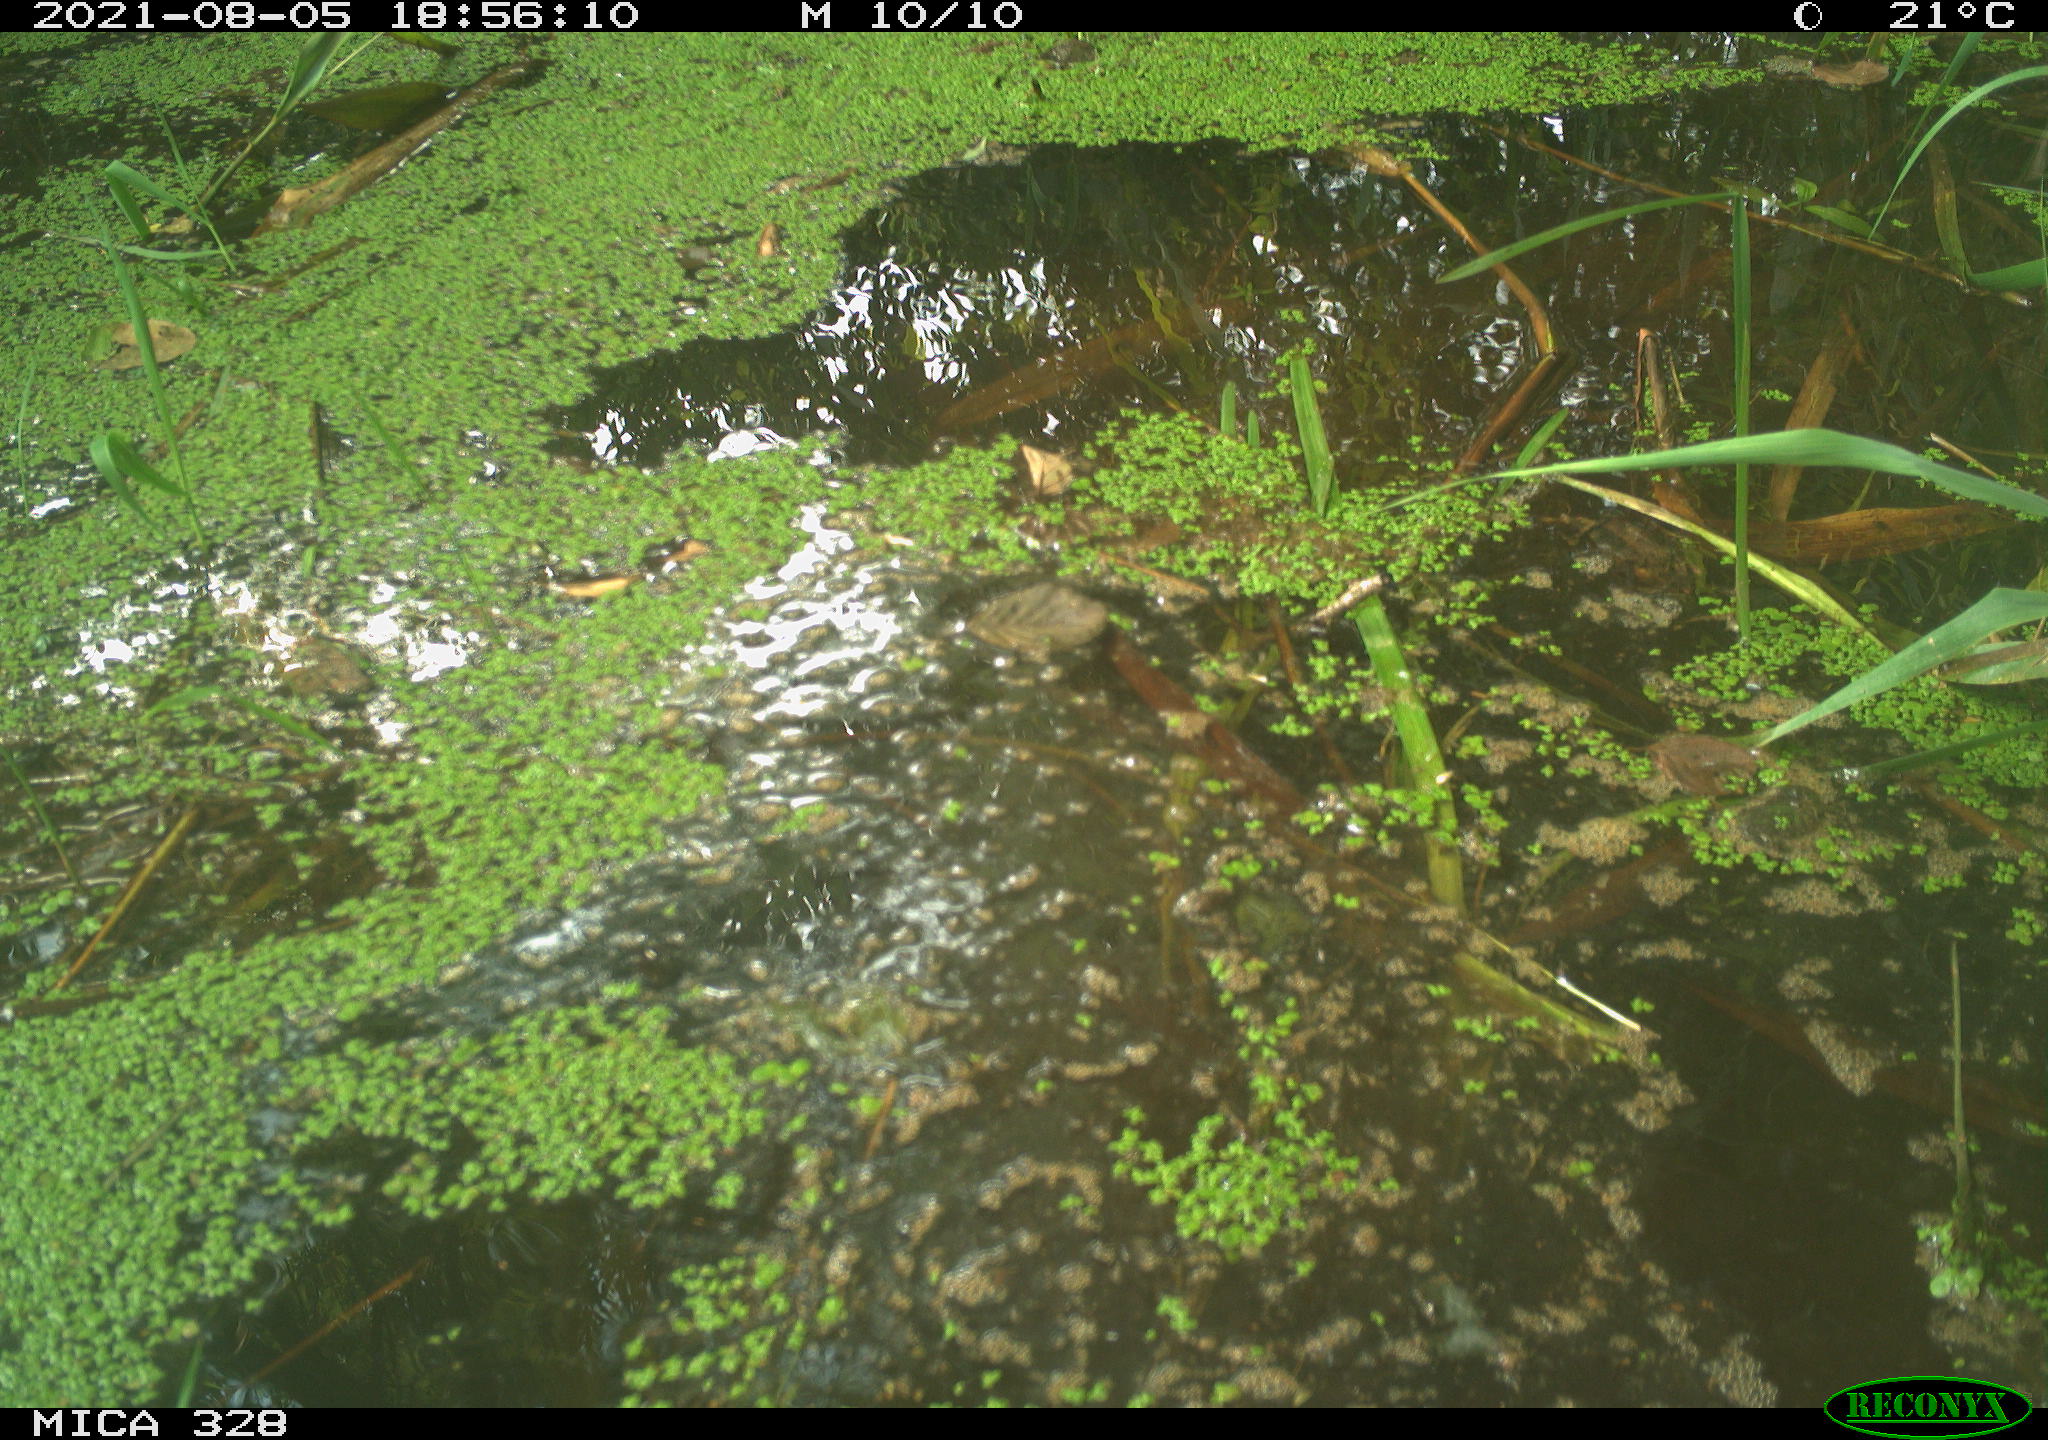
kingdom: Animalia
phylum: Chordata
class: Aves
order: Gruiformes
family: Rallidae
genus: Gallinula
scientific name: Gallinula chloropus
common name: Common moorhen
